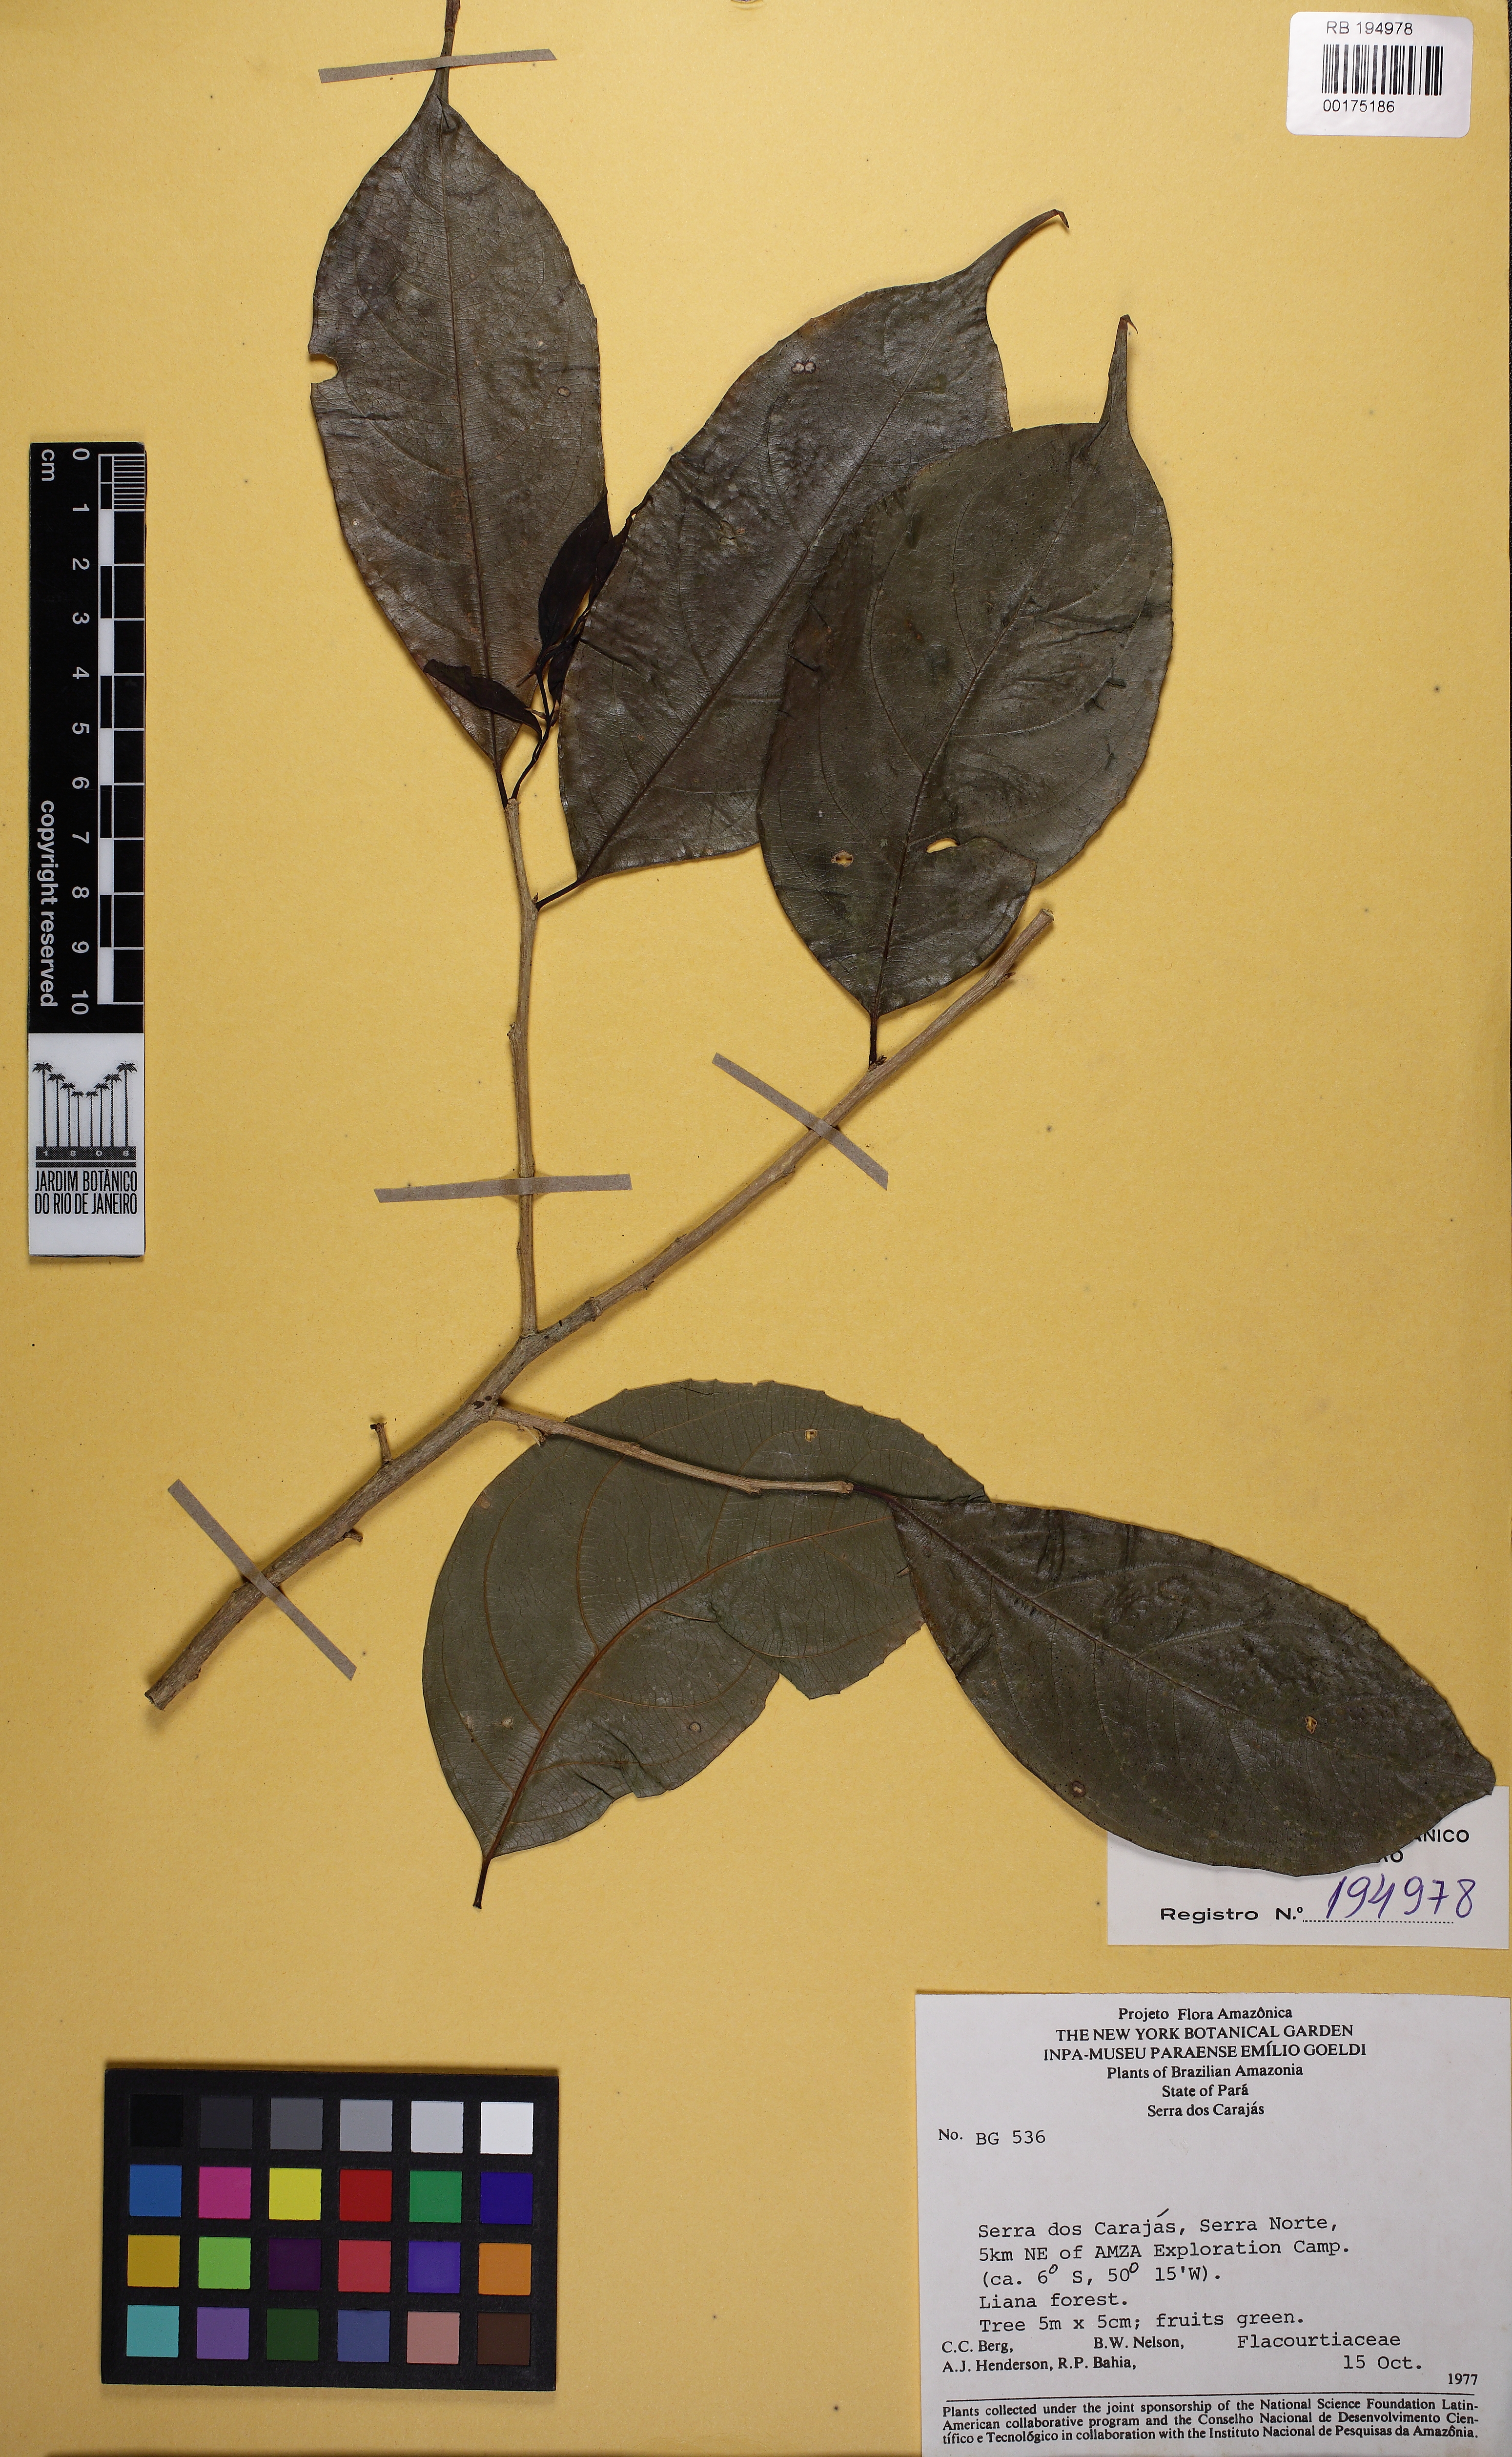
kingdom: Plantae
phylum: Tracheophyta
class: Magnoliopsida
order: Malpighiales
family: Flacourtiaceae
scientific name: Flacourtiaceae
